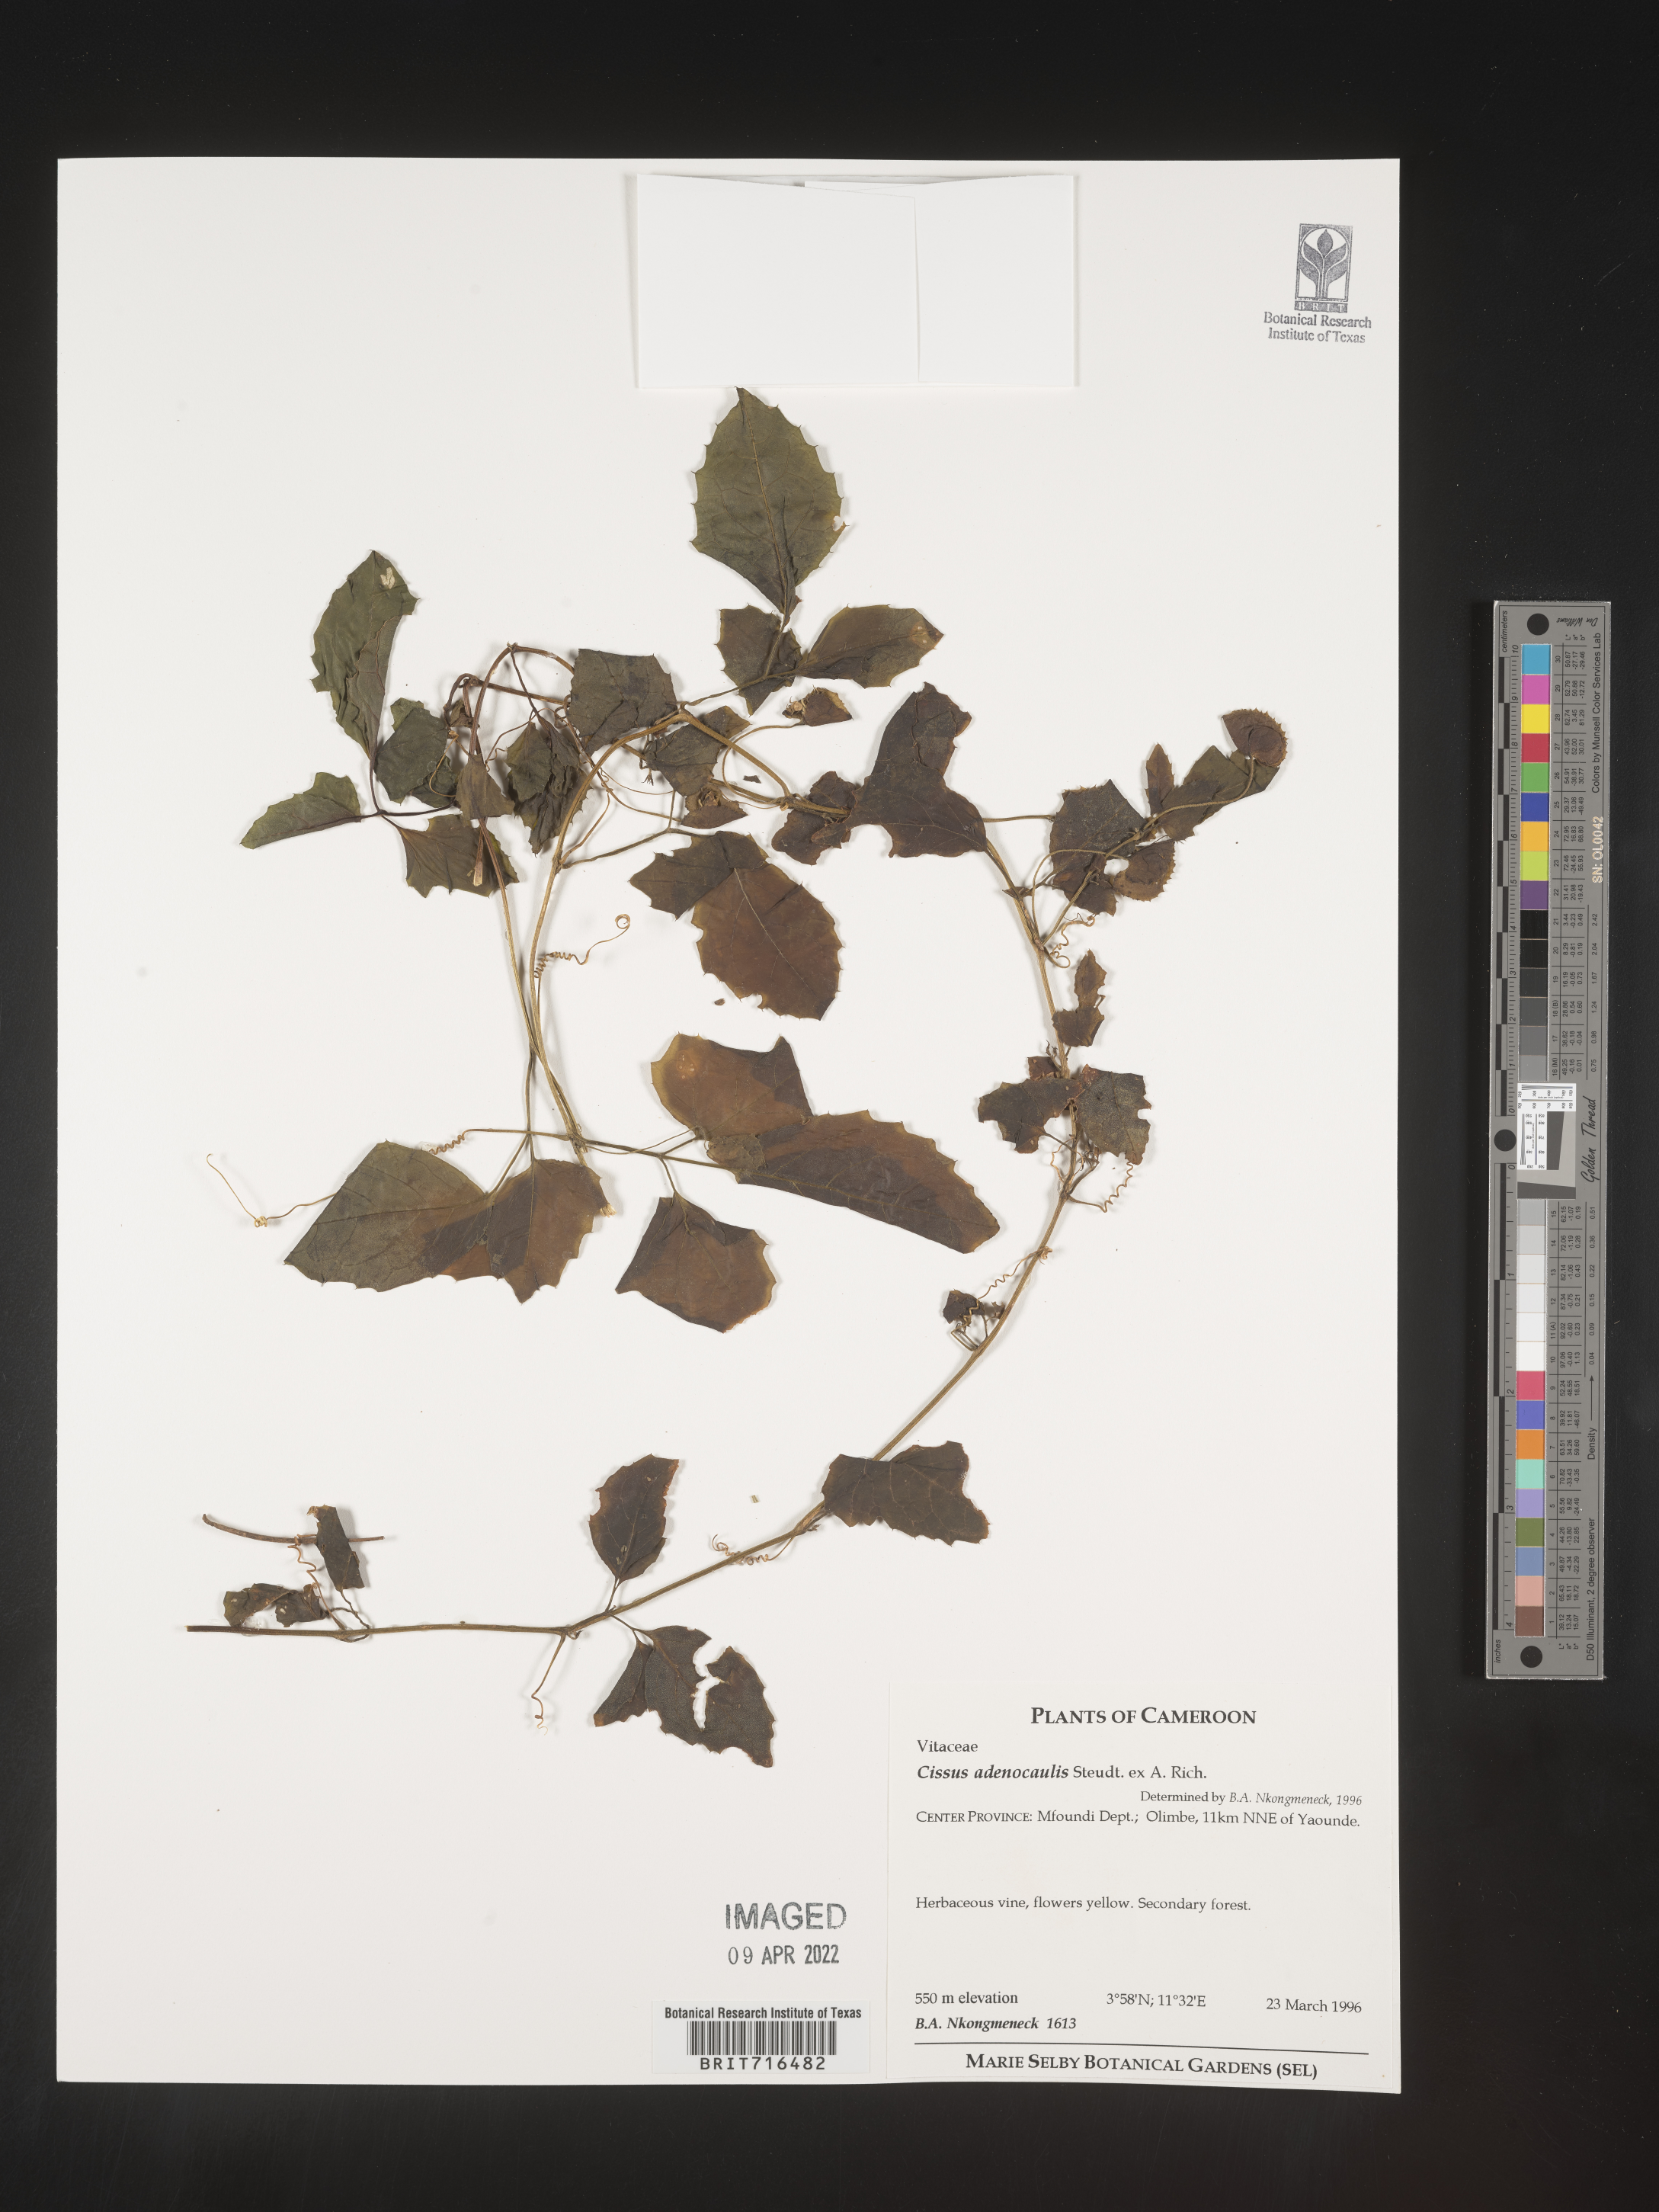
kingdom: Plantae
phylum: Tracheophyta
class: Magnoliopsida
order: Vitales
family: Vitaceae
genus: Cissus
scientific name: Cissus
